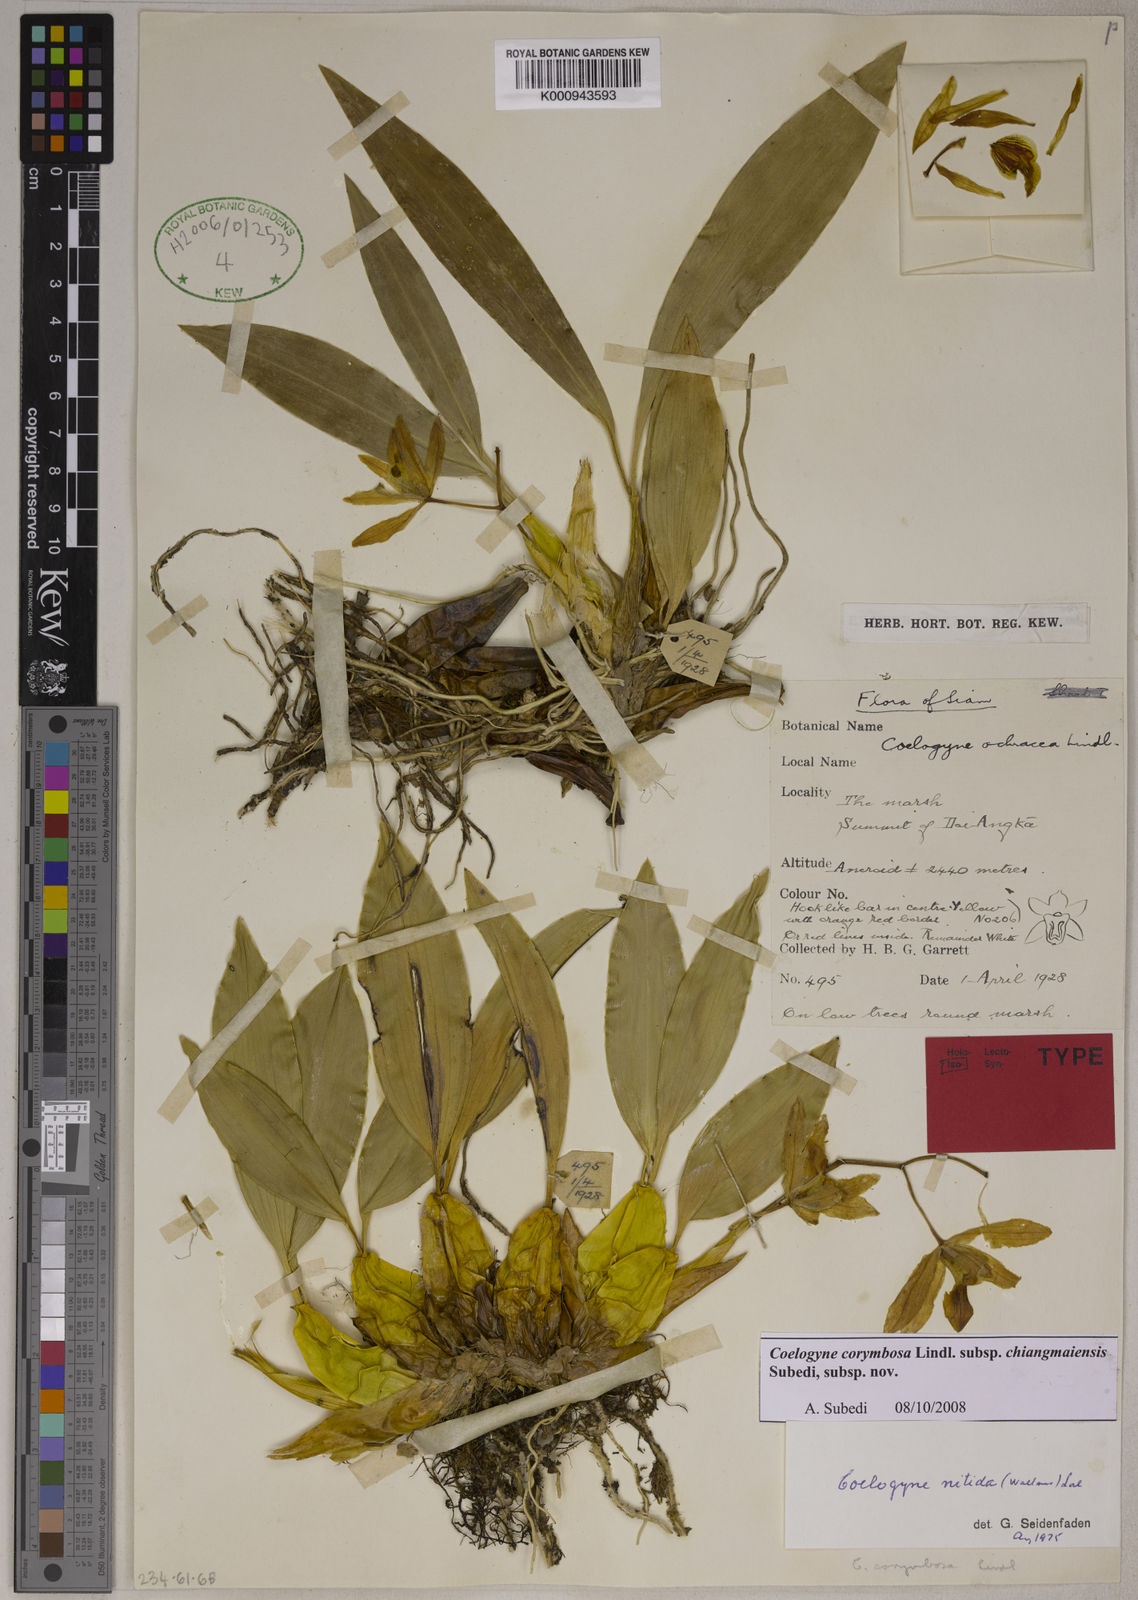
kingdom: Plantae
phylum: Tracheophyta
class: Liliopsida
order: Asparagales
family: Orchidaceae
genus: Coelogyne
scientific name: Coelogyne corymbosa
